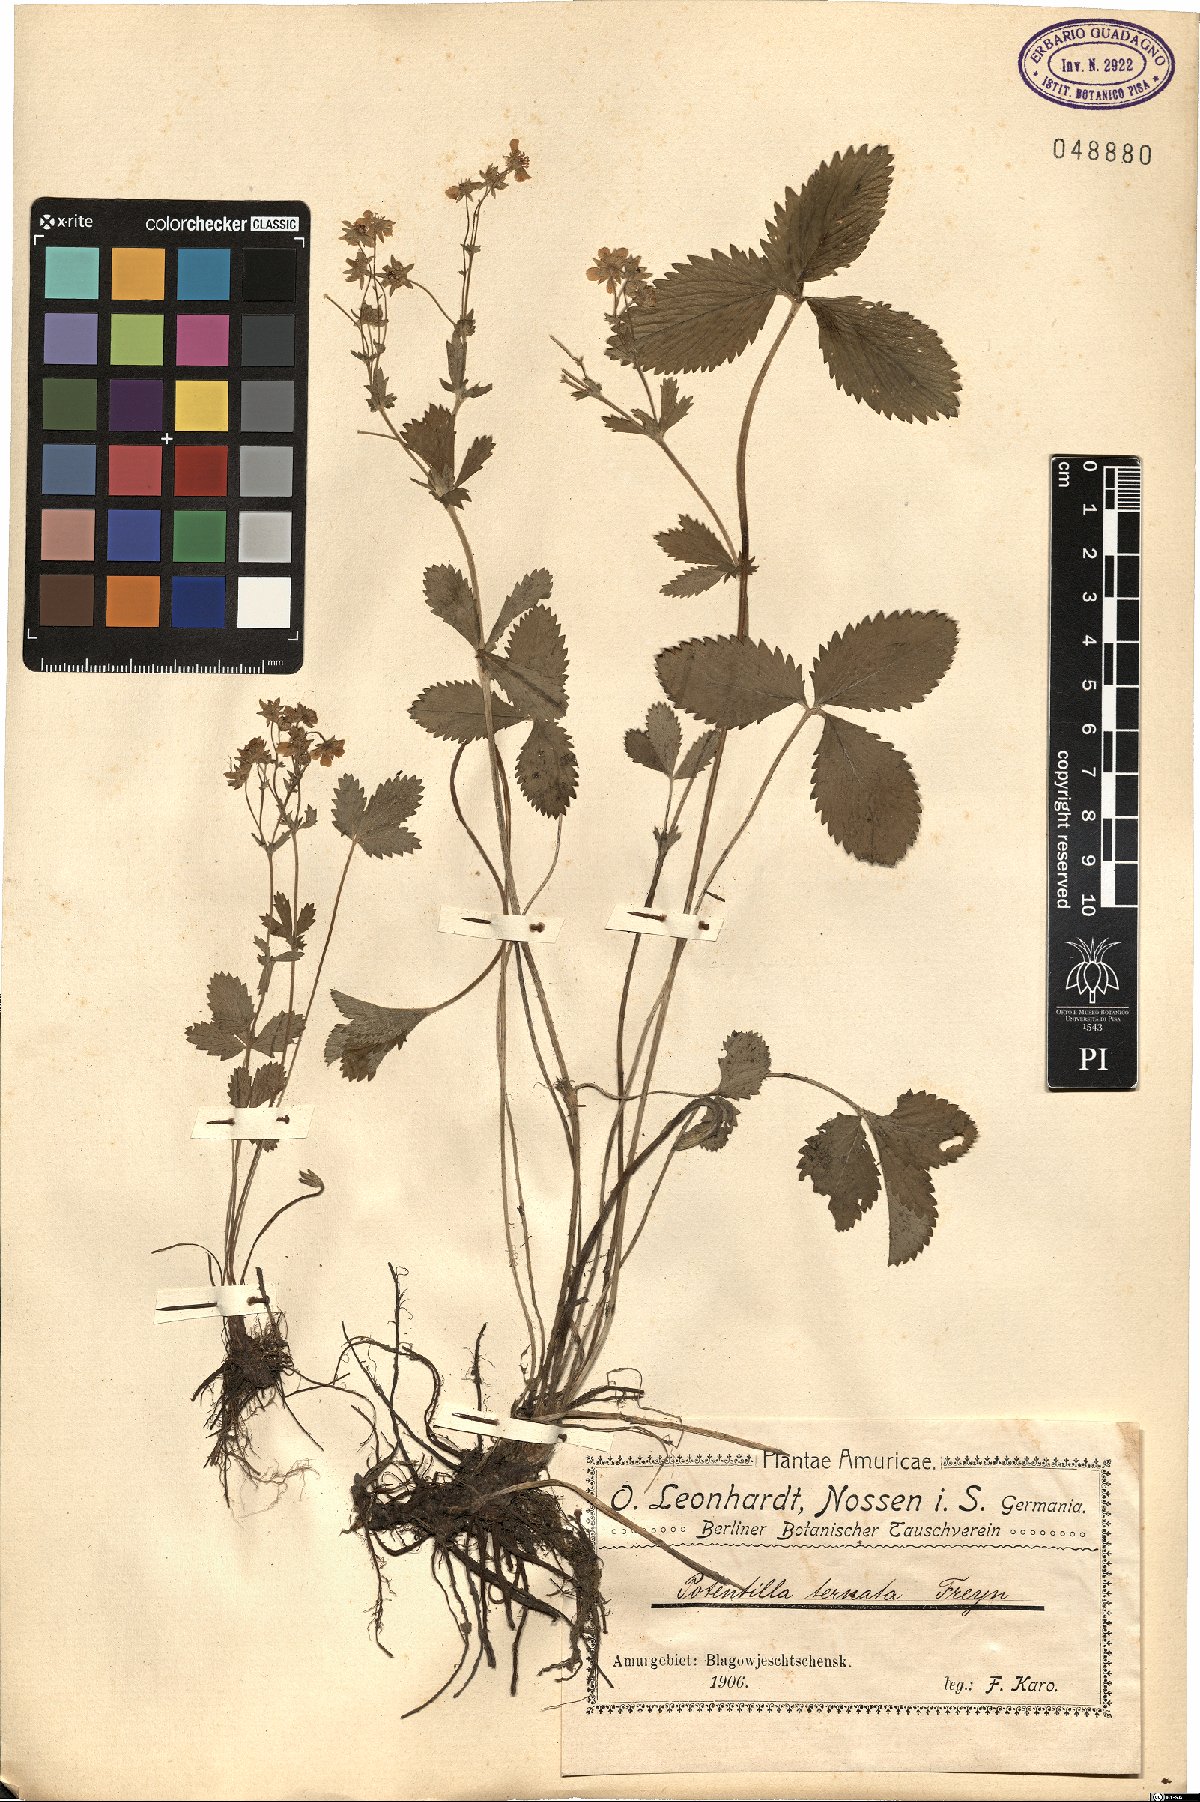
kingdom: Plantae
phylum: Tracheophyta
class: Magnoliopsida
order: Rosales
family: Rosaceae
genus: Potentilla
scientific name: Potentilla aurea
